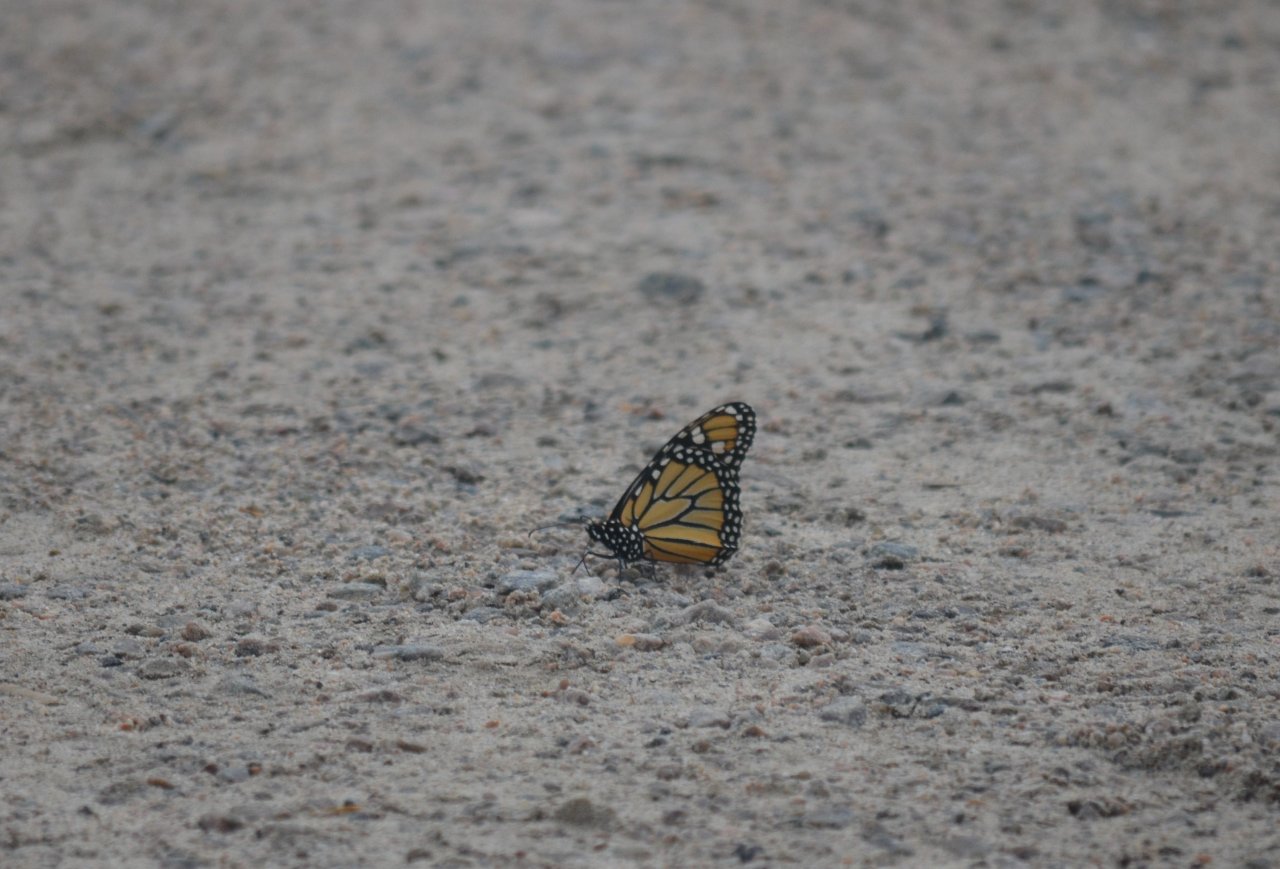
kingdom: Animalia
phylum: Arthropoda
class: Insecta
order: Lepidoptera
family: Nymphalidae
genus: Danaus
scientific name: Danaus plexippus
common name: Monarch
